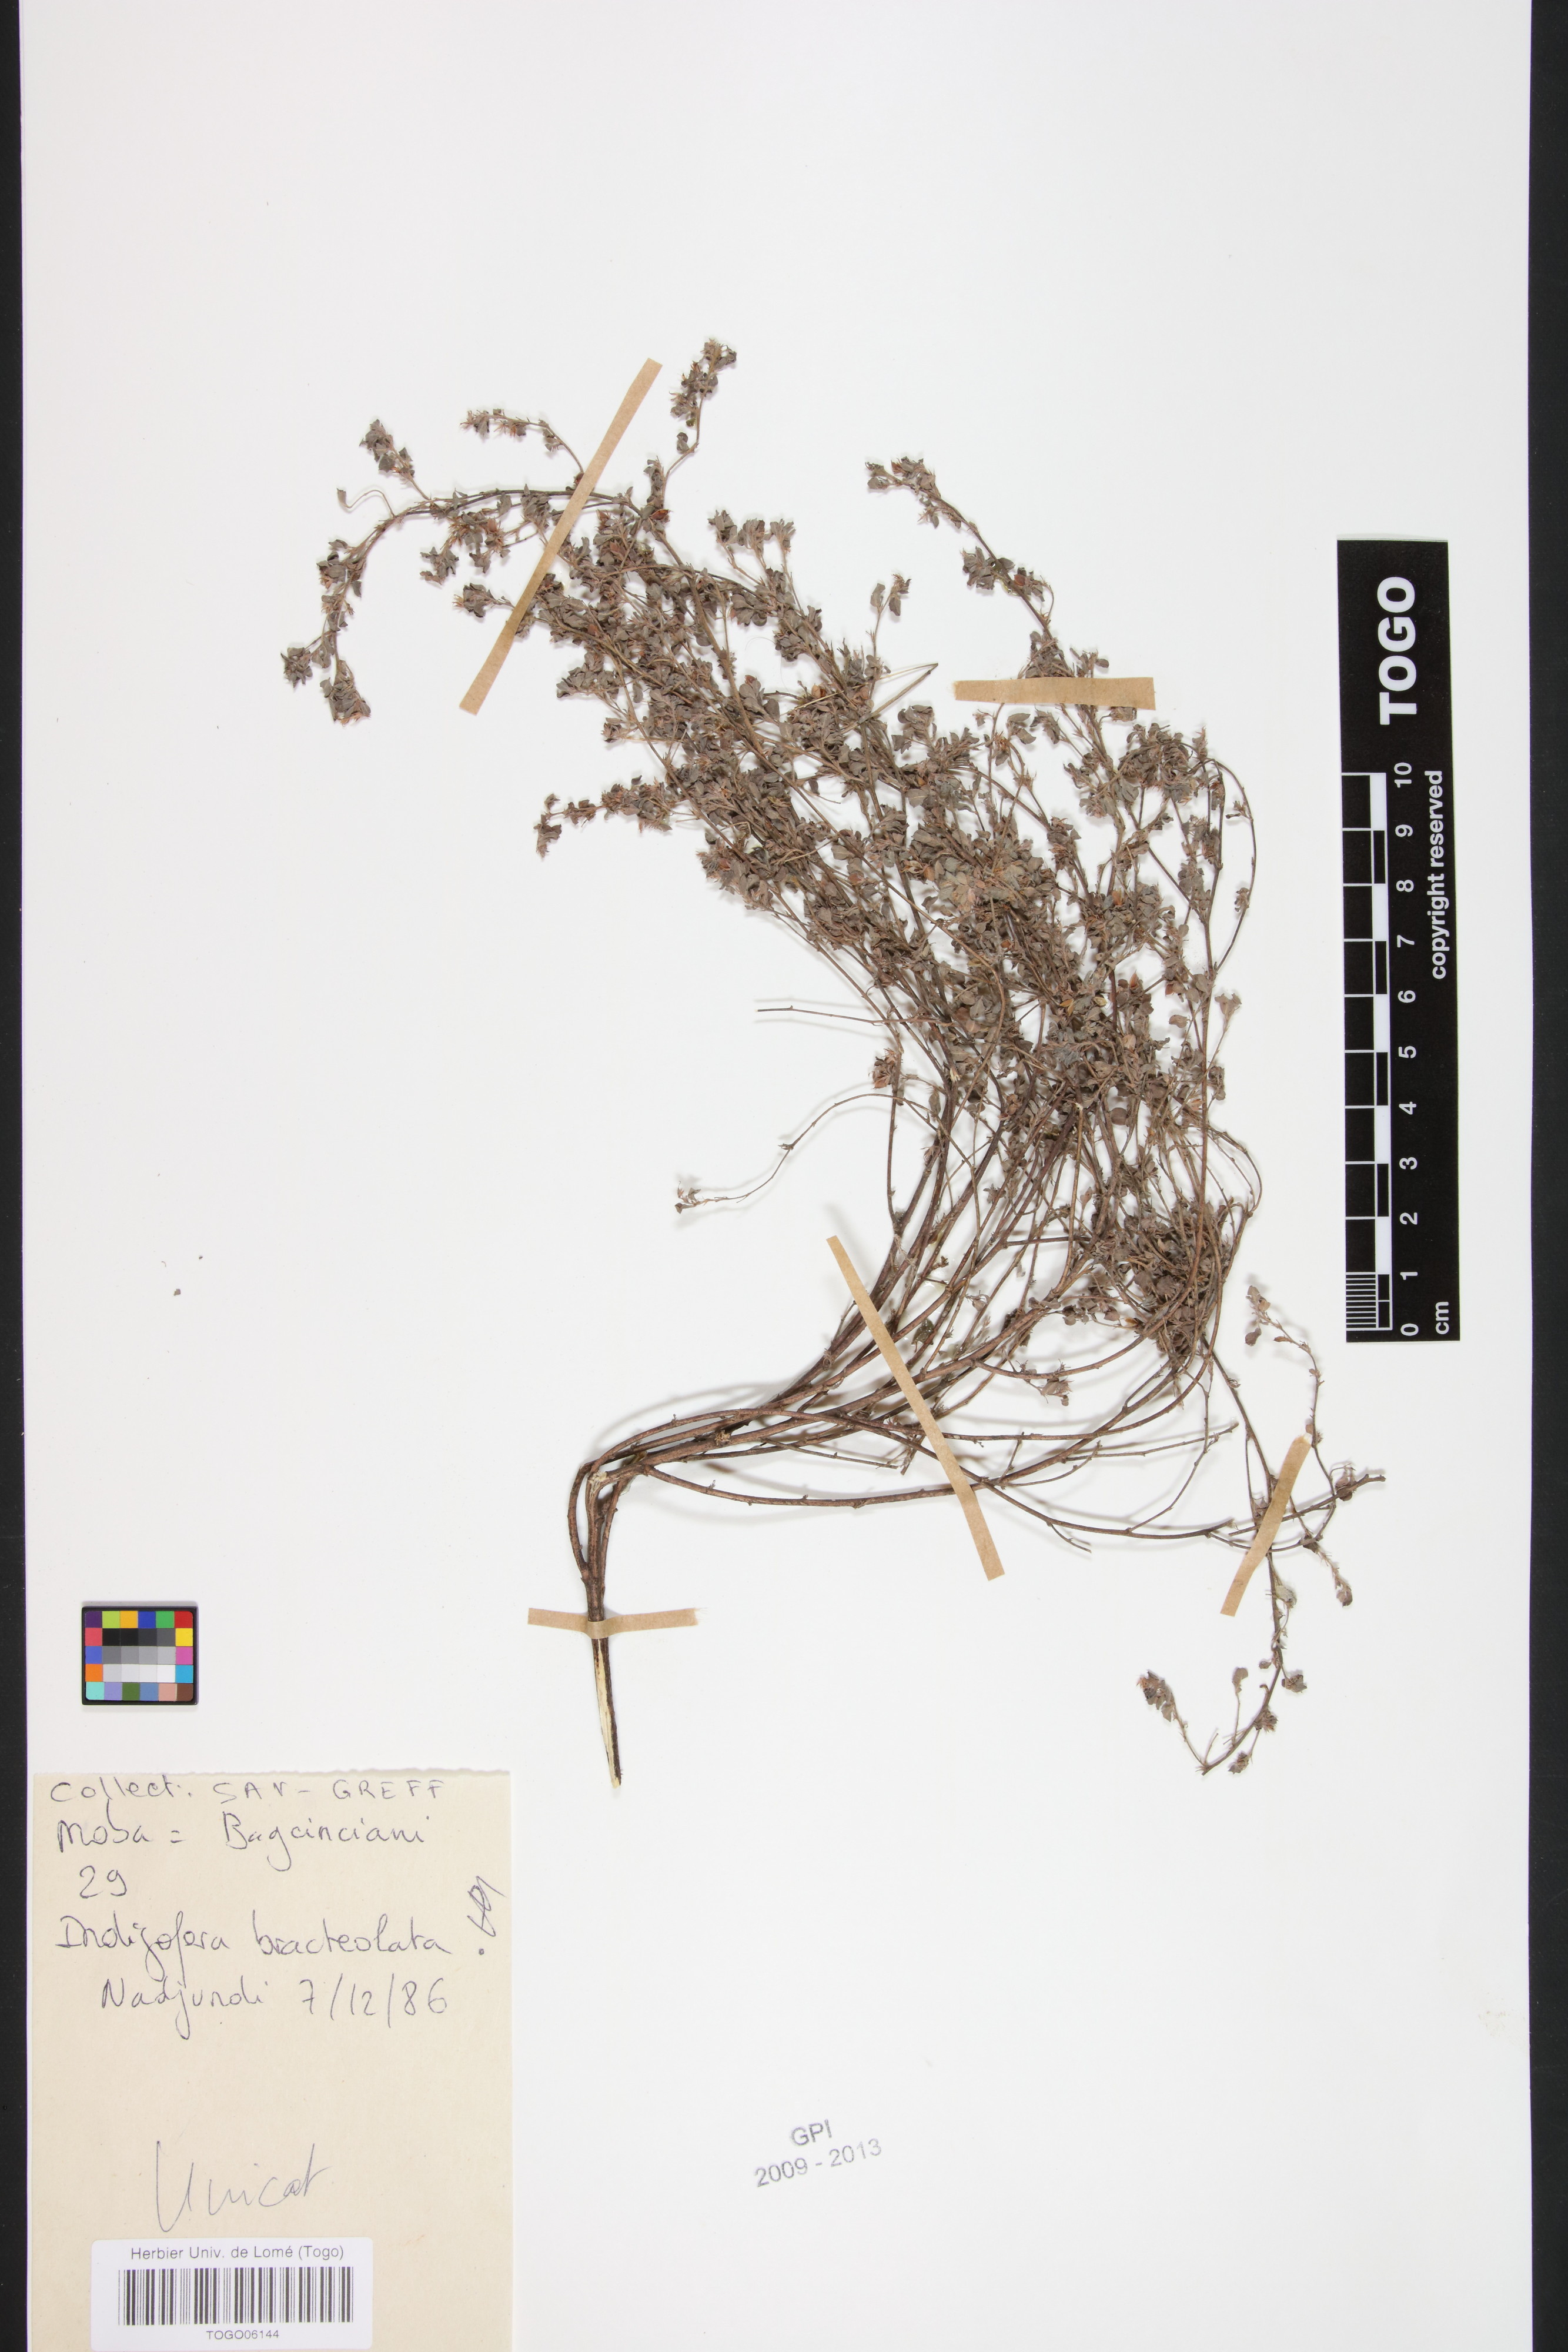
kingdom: Plantae
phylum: Tracheophyta
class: Magnoliopsida
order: Fabales
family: Fabaceae
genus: Indigofera
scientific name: Indigofera bracteolata
